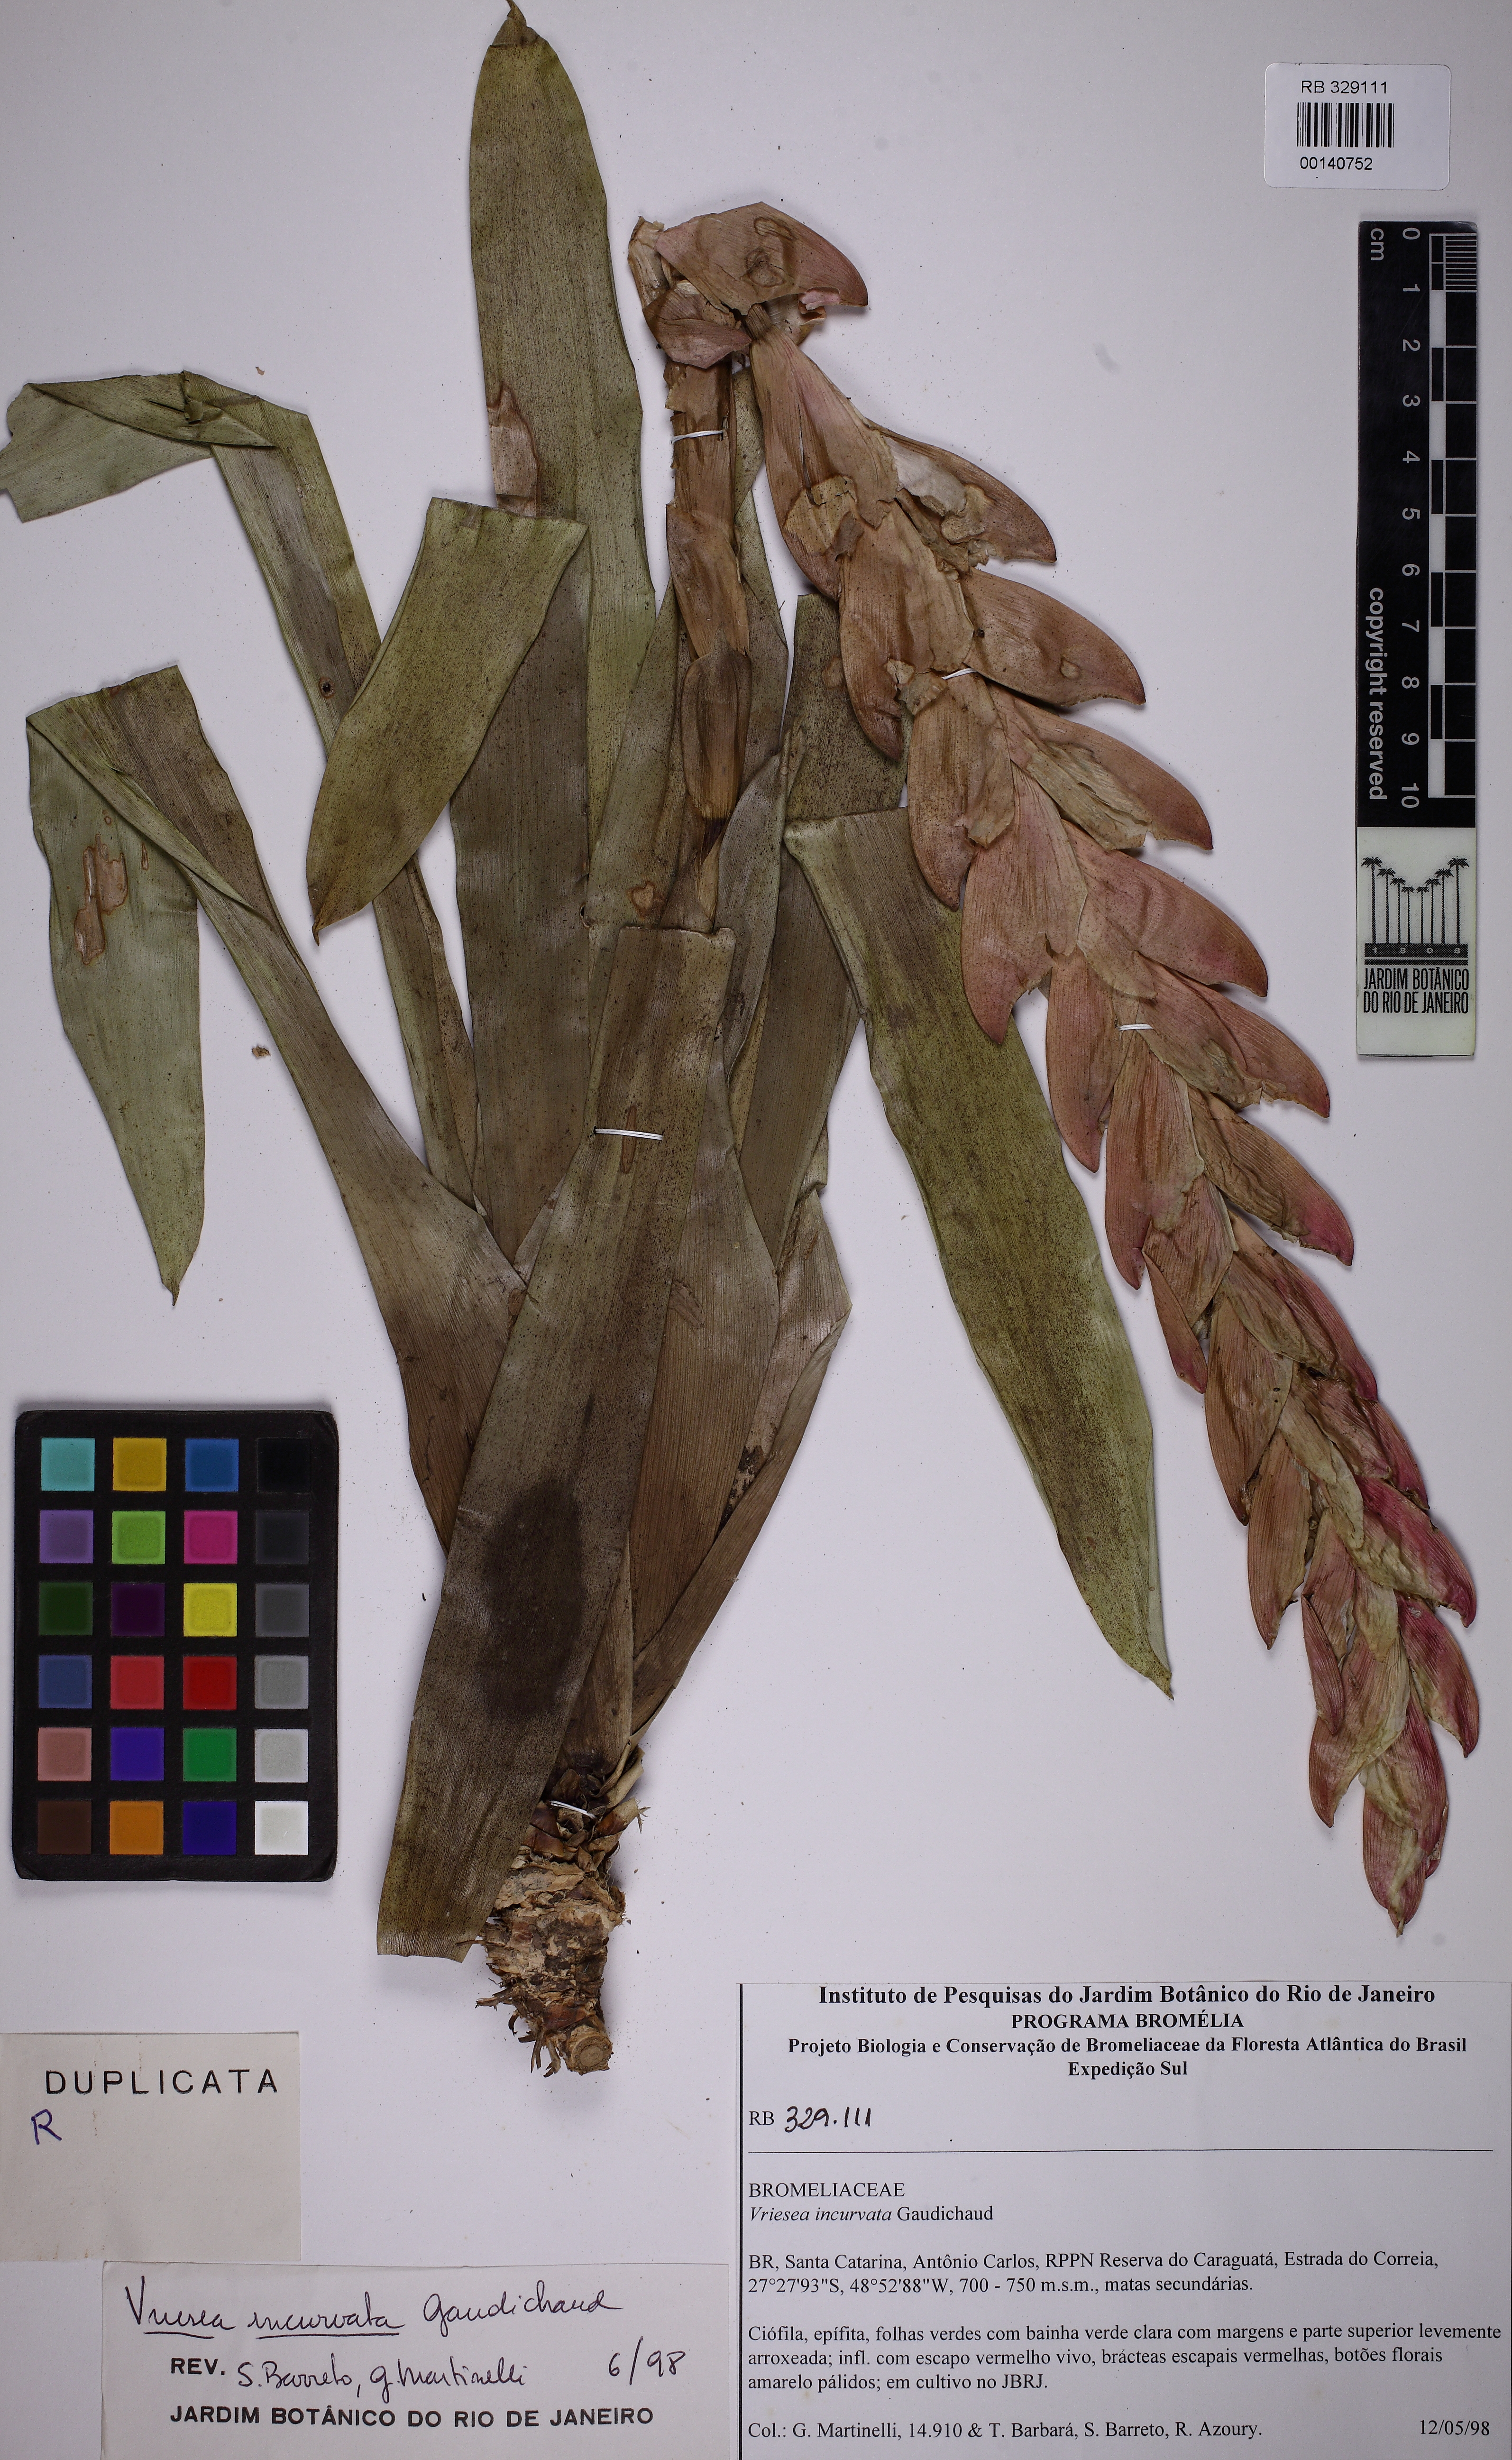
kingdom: Plantae
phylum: Tracheophyta
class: Liliopsida
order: Poales
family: Bromeliaceae
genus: Vriesea
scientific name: Vriesea rodigasiana
